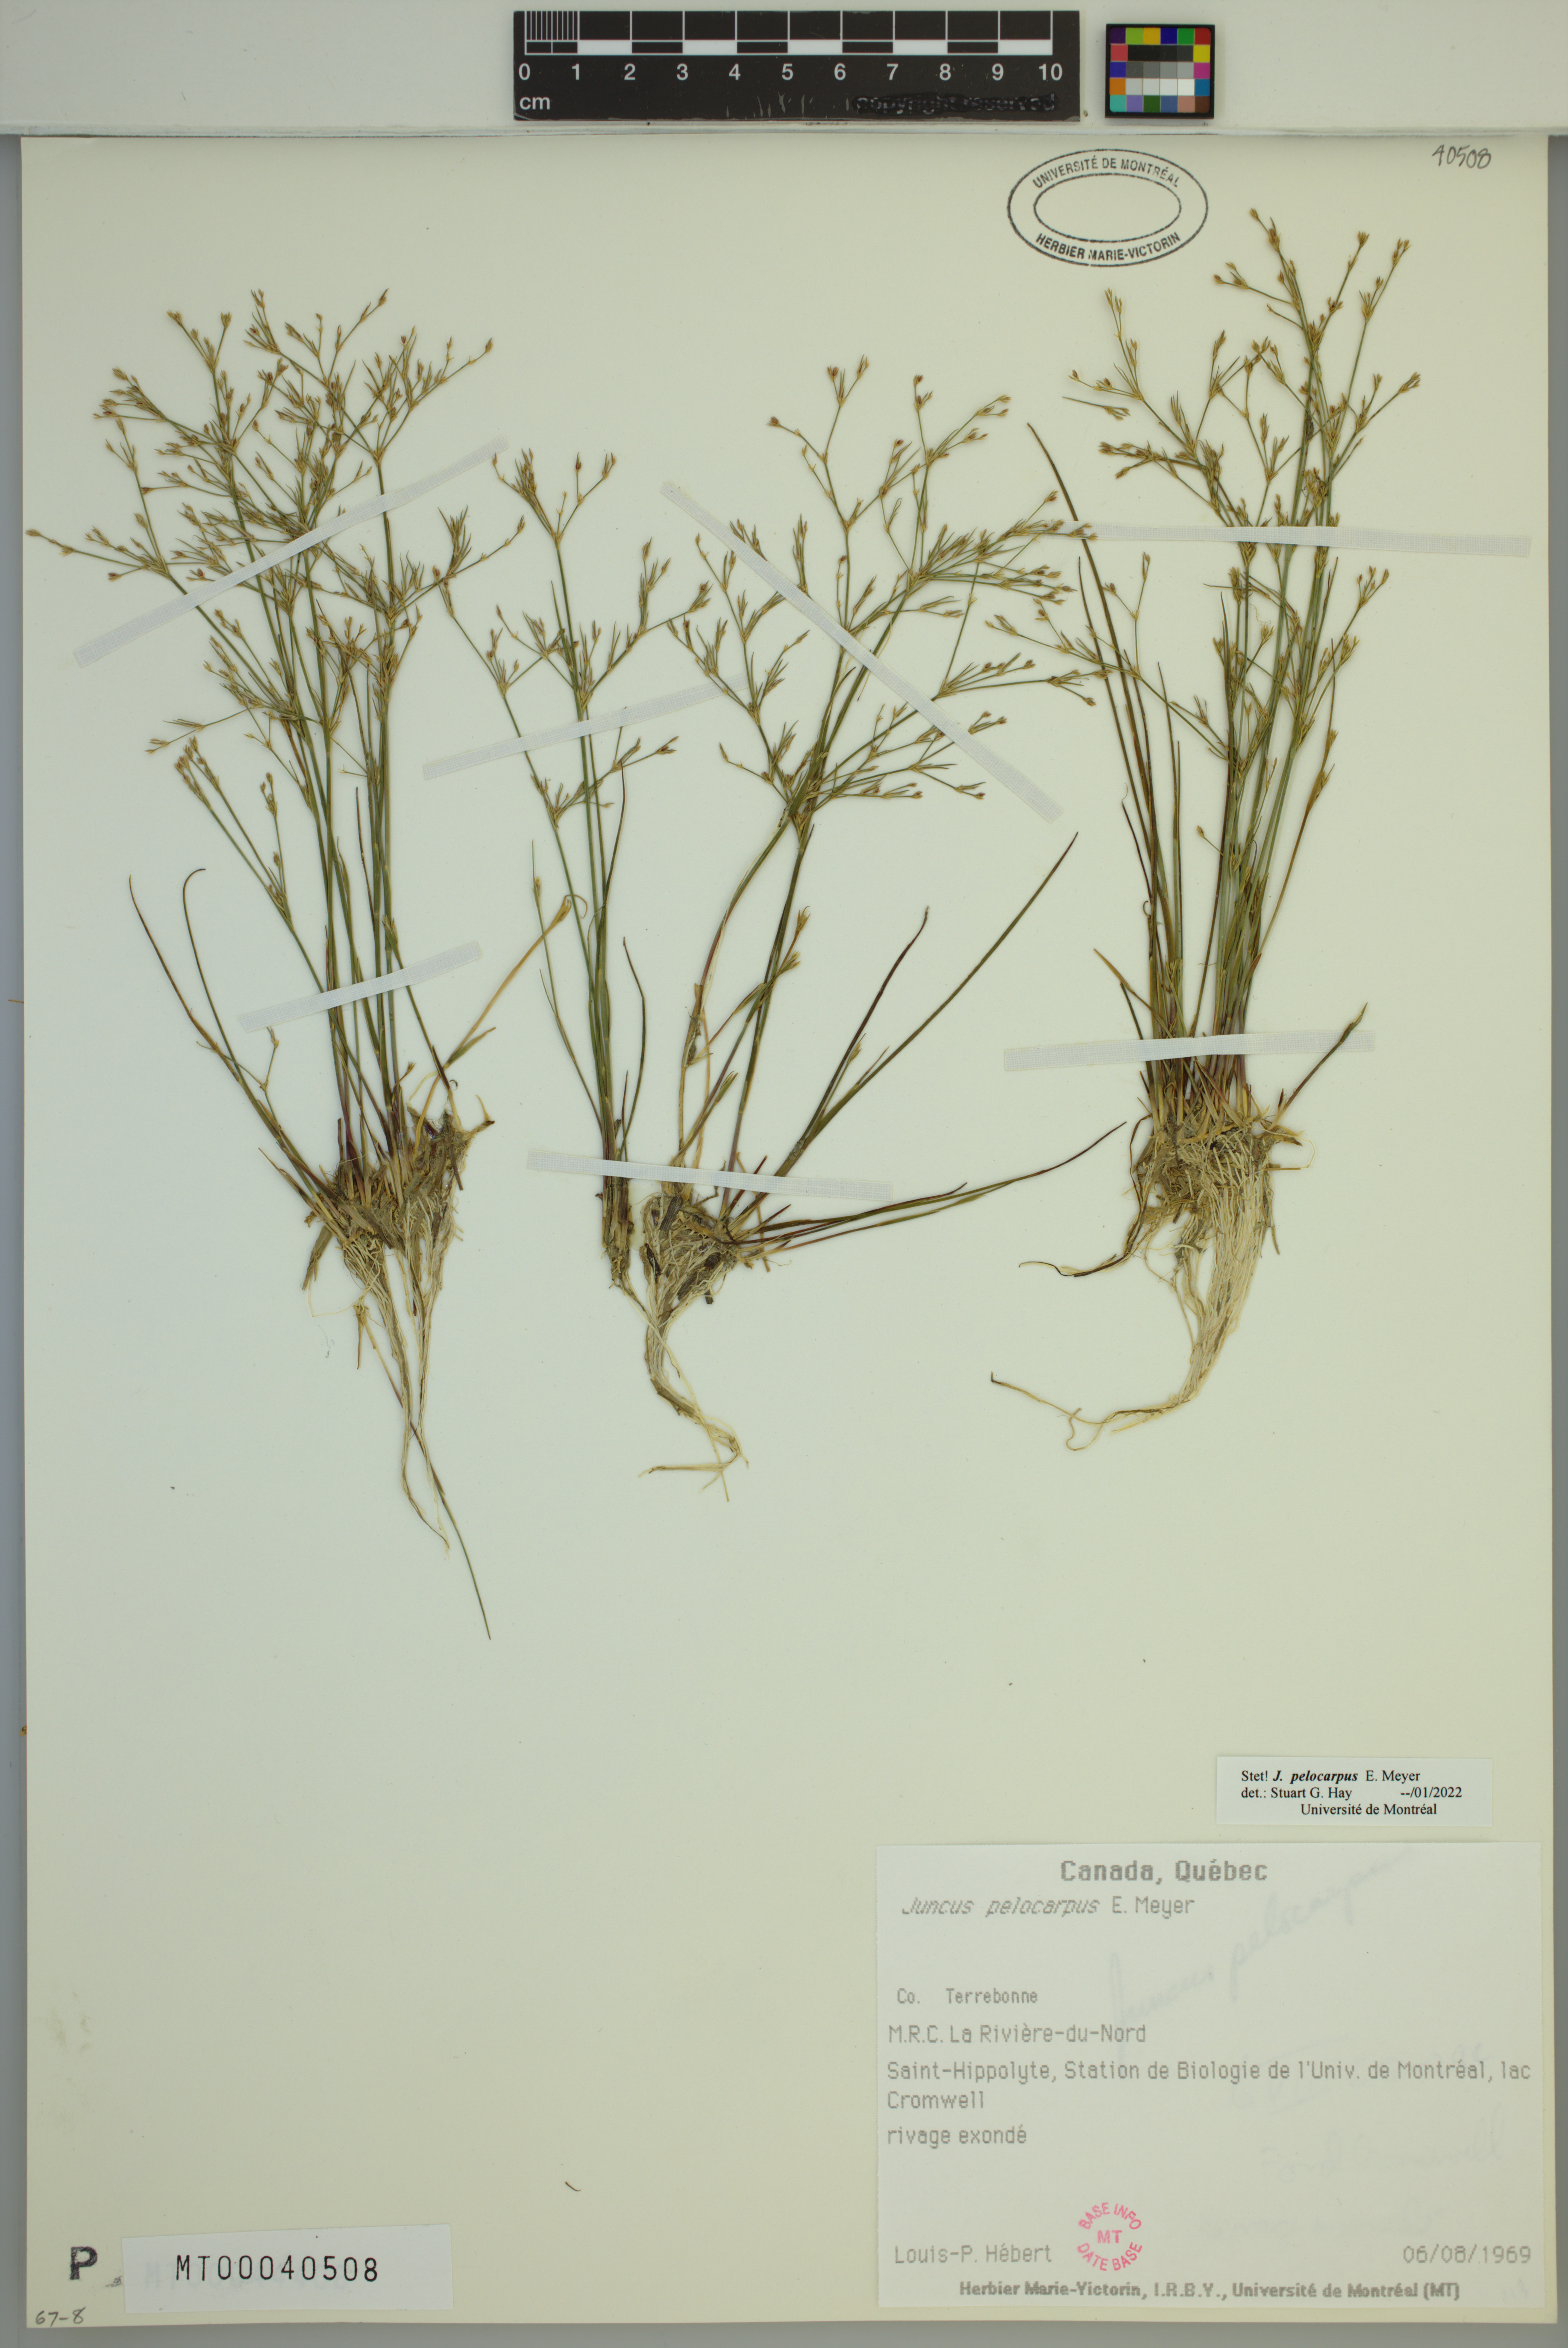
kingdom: Plantae
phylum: Tracheophyta
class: Liliopsida
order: Poales
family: Juncaceae
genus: Juncus
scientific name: Juncus pelocarpus
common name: Brown-fruited rush
